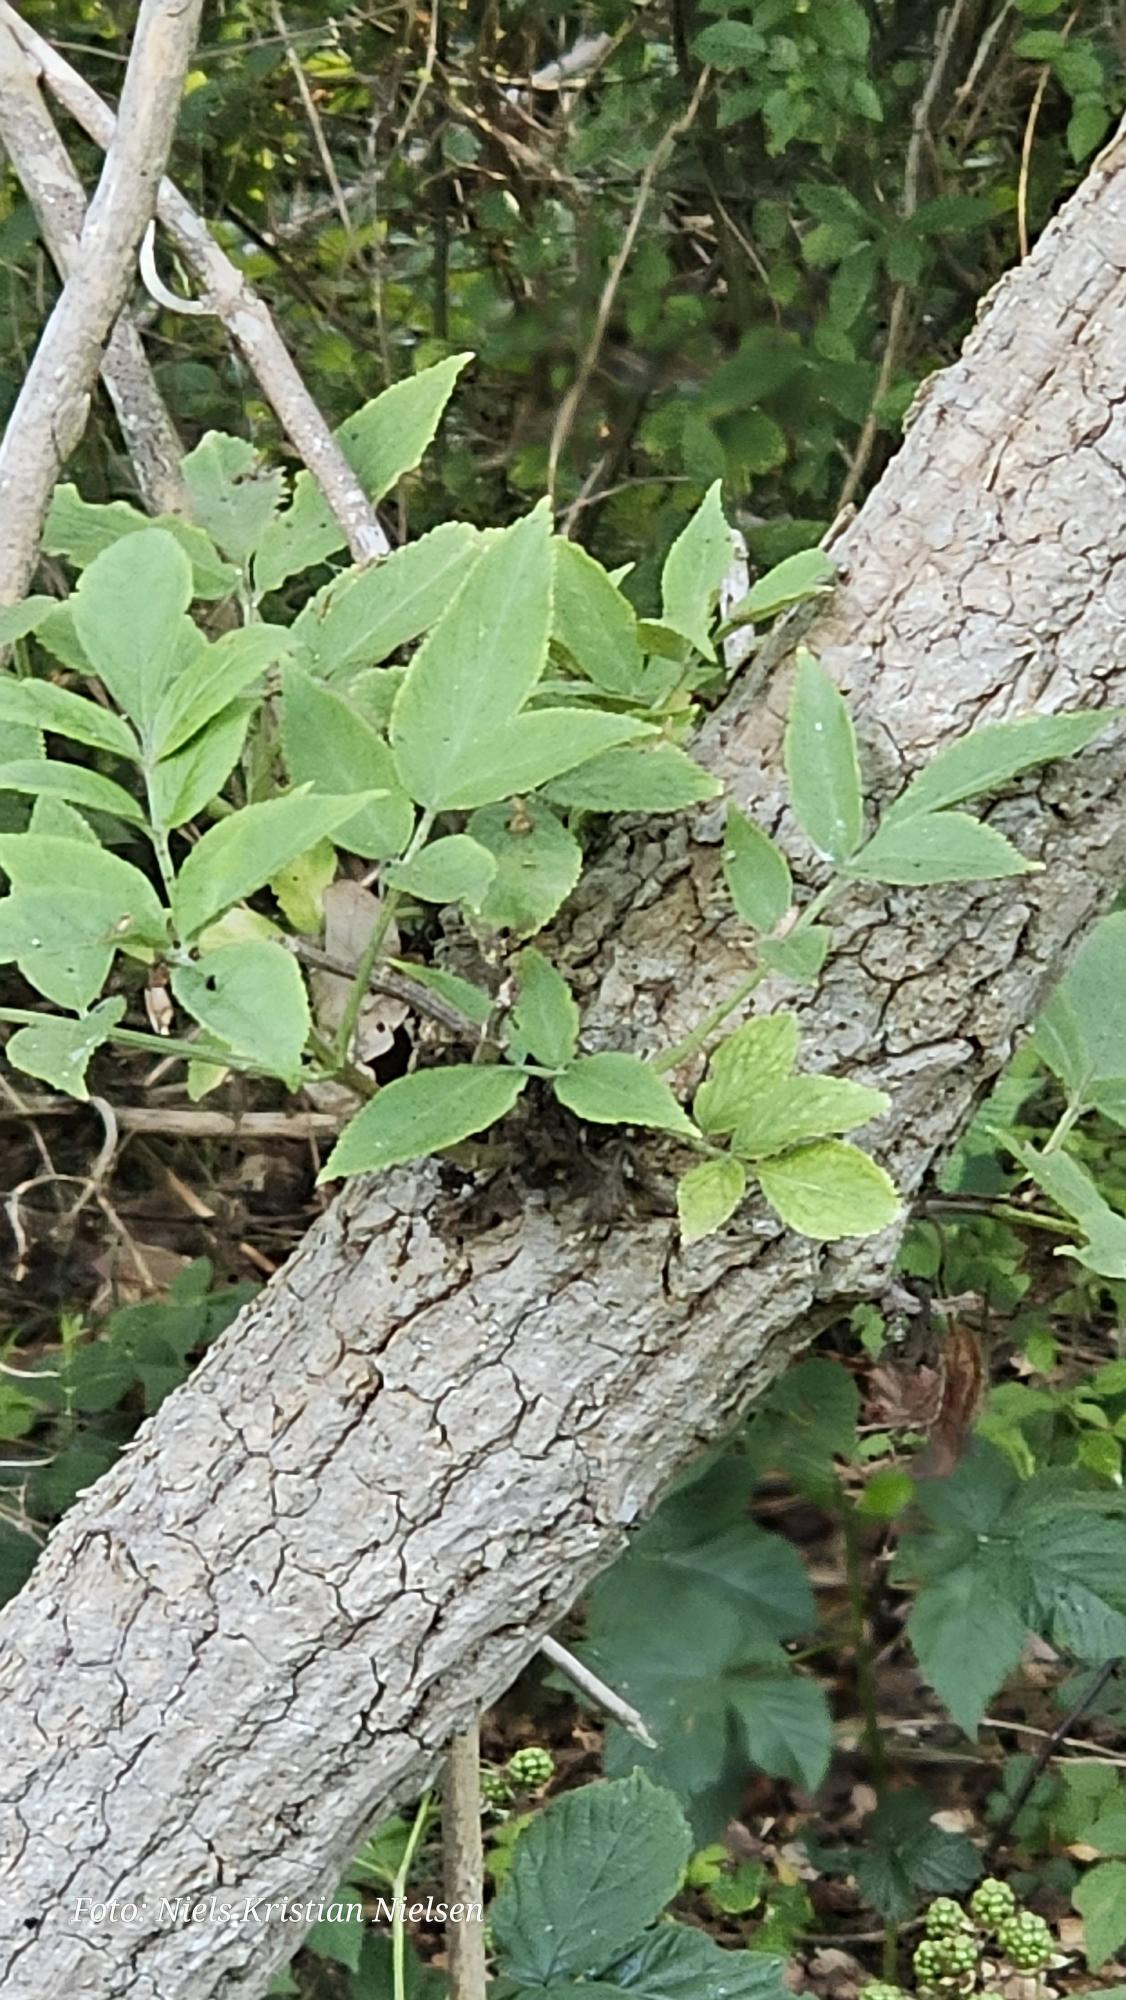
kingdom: Plantae
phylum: Tracheophyta
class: Magnoliopsida
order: Dipsacales
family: Viburnaceae
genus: Sambucus
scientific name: Sambucus nigra
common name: Almindelig hyld
